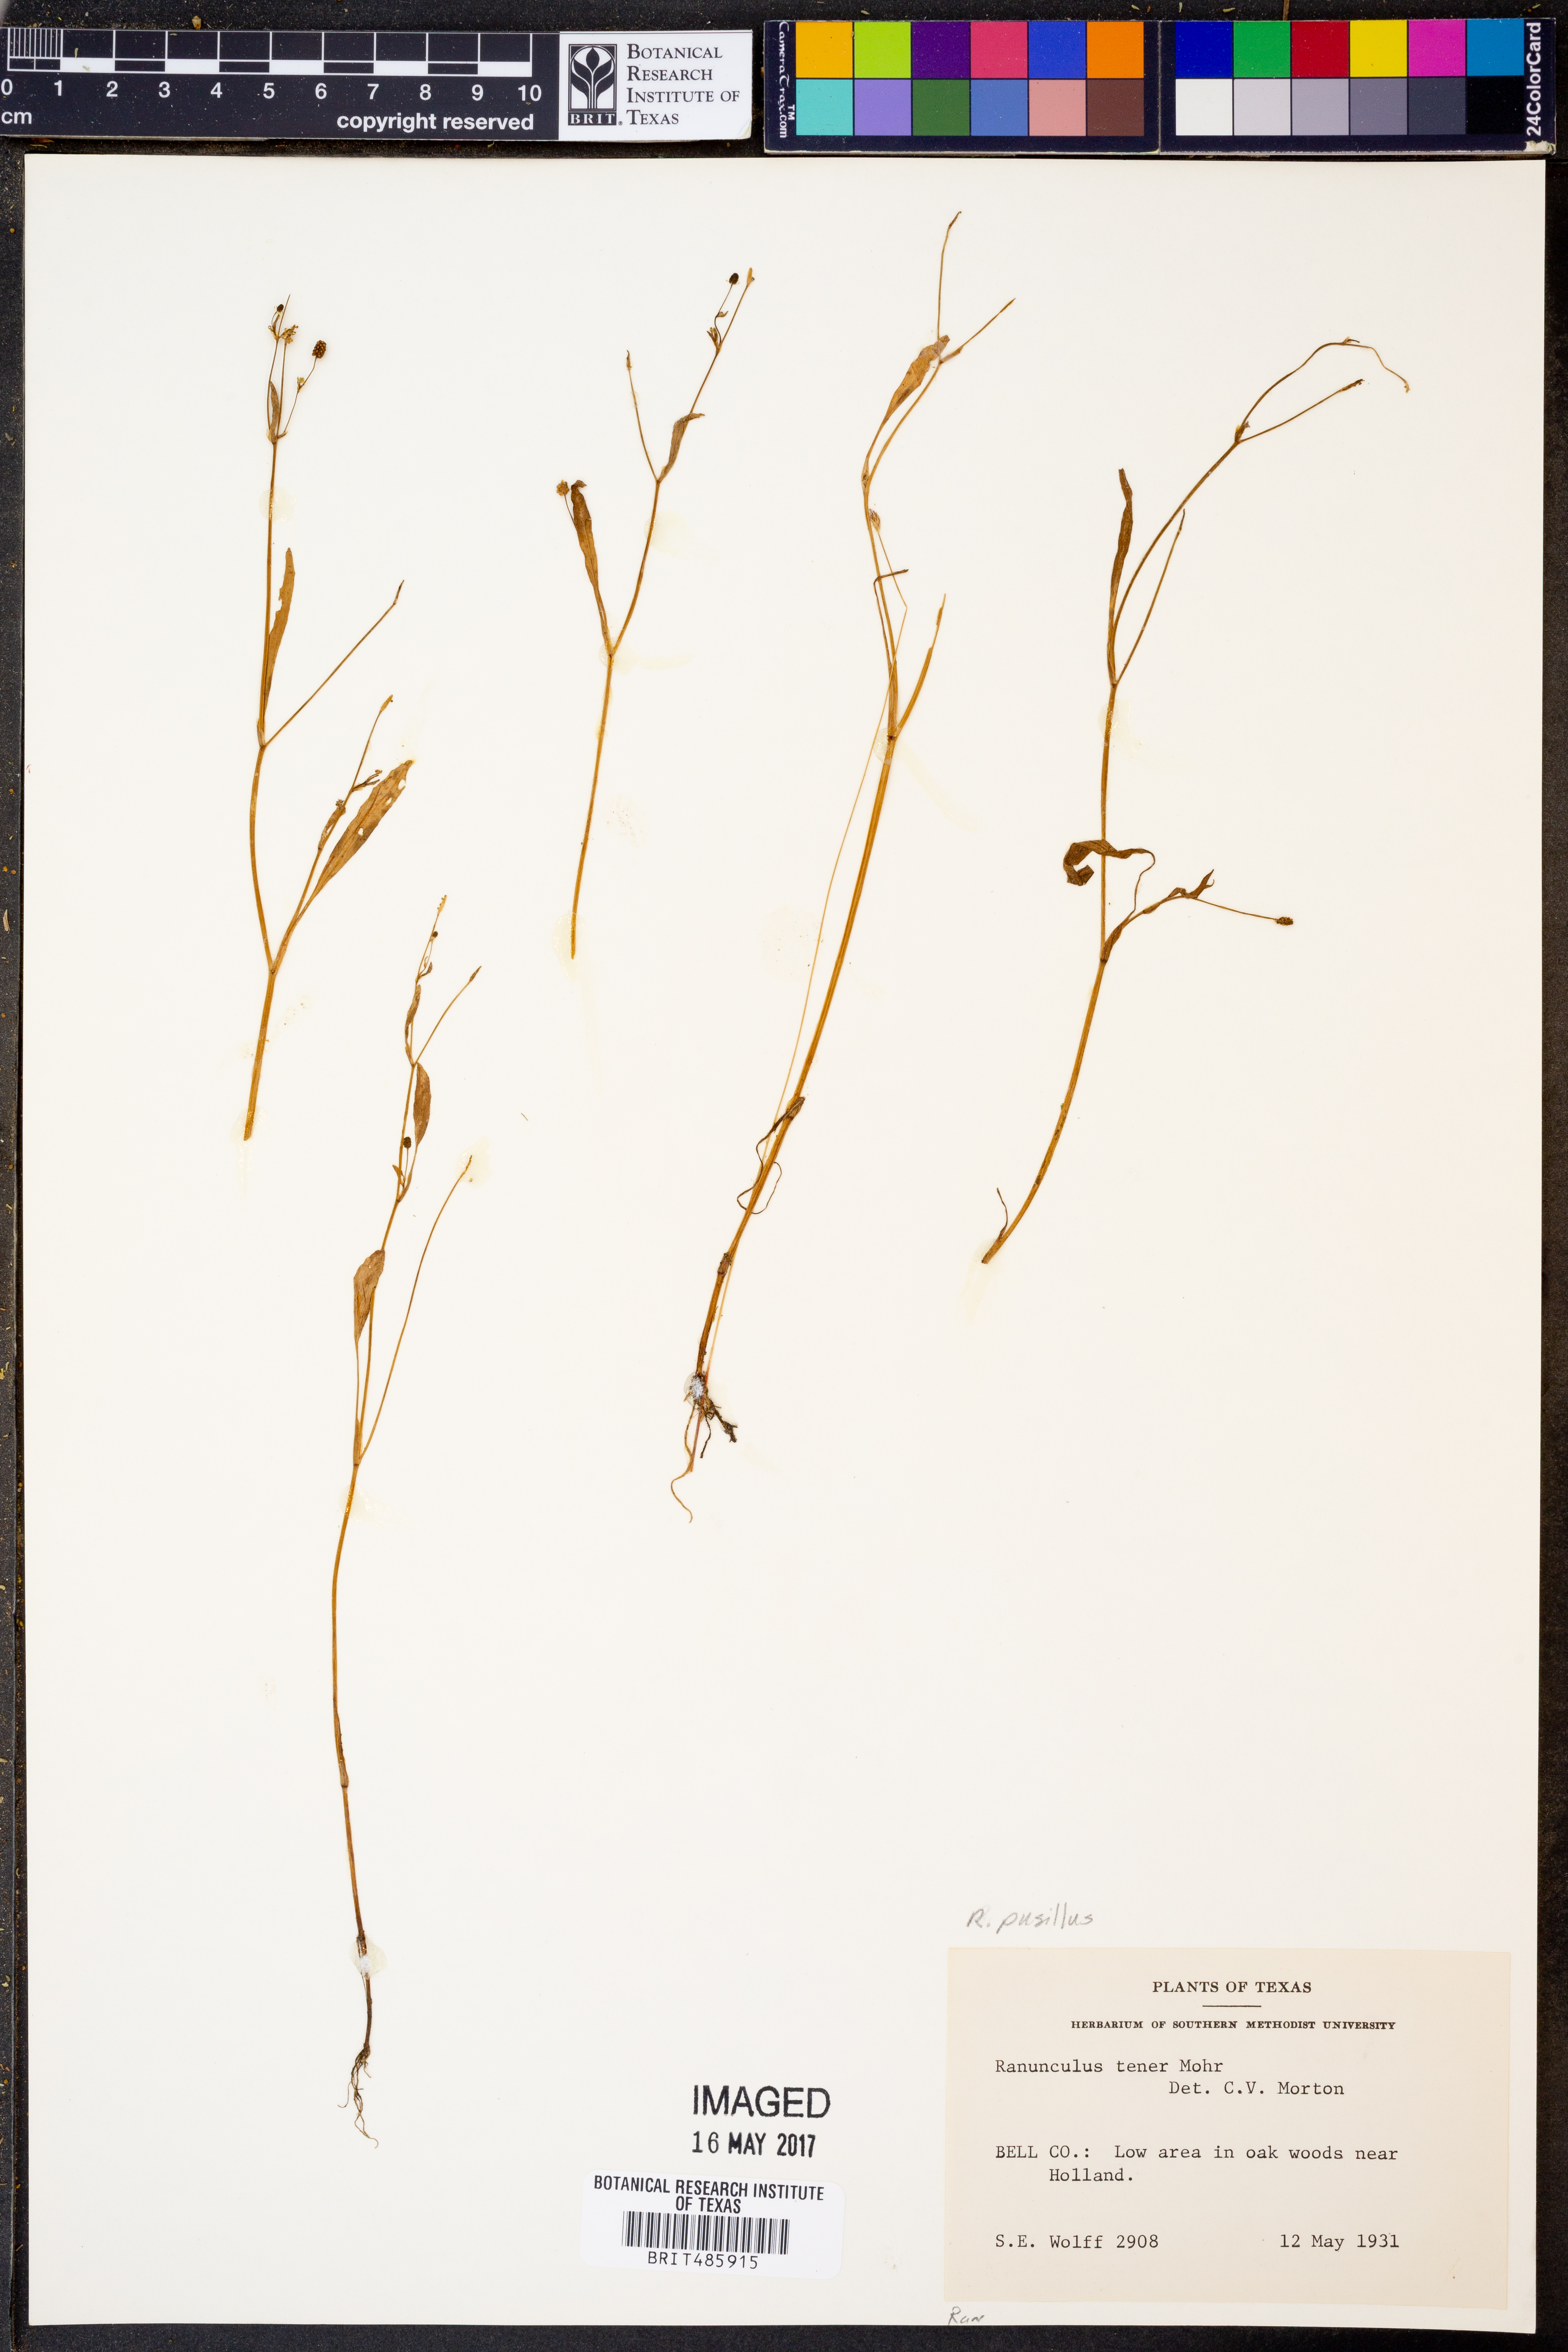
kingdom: Plantae
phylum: Tracheophyta
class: Magnoliopsida
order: Ranunculales
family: Ranunculaceae
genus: Ranunculus
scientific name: Ranunculus pusillus
